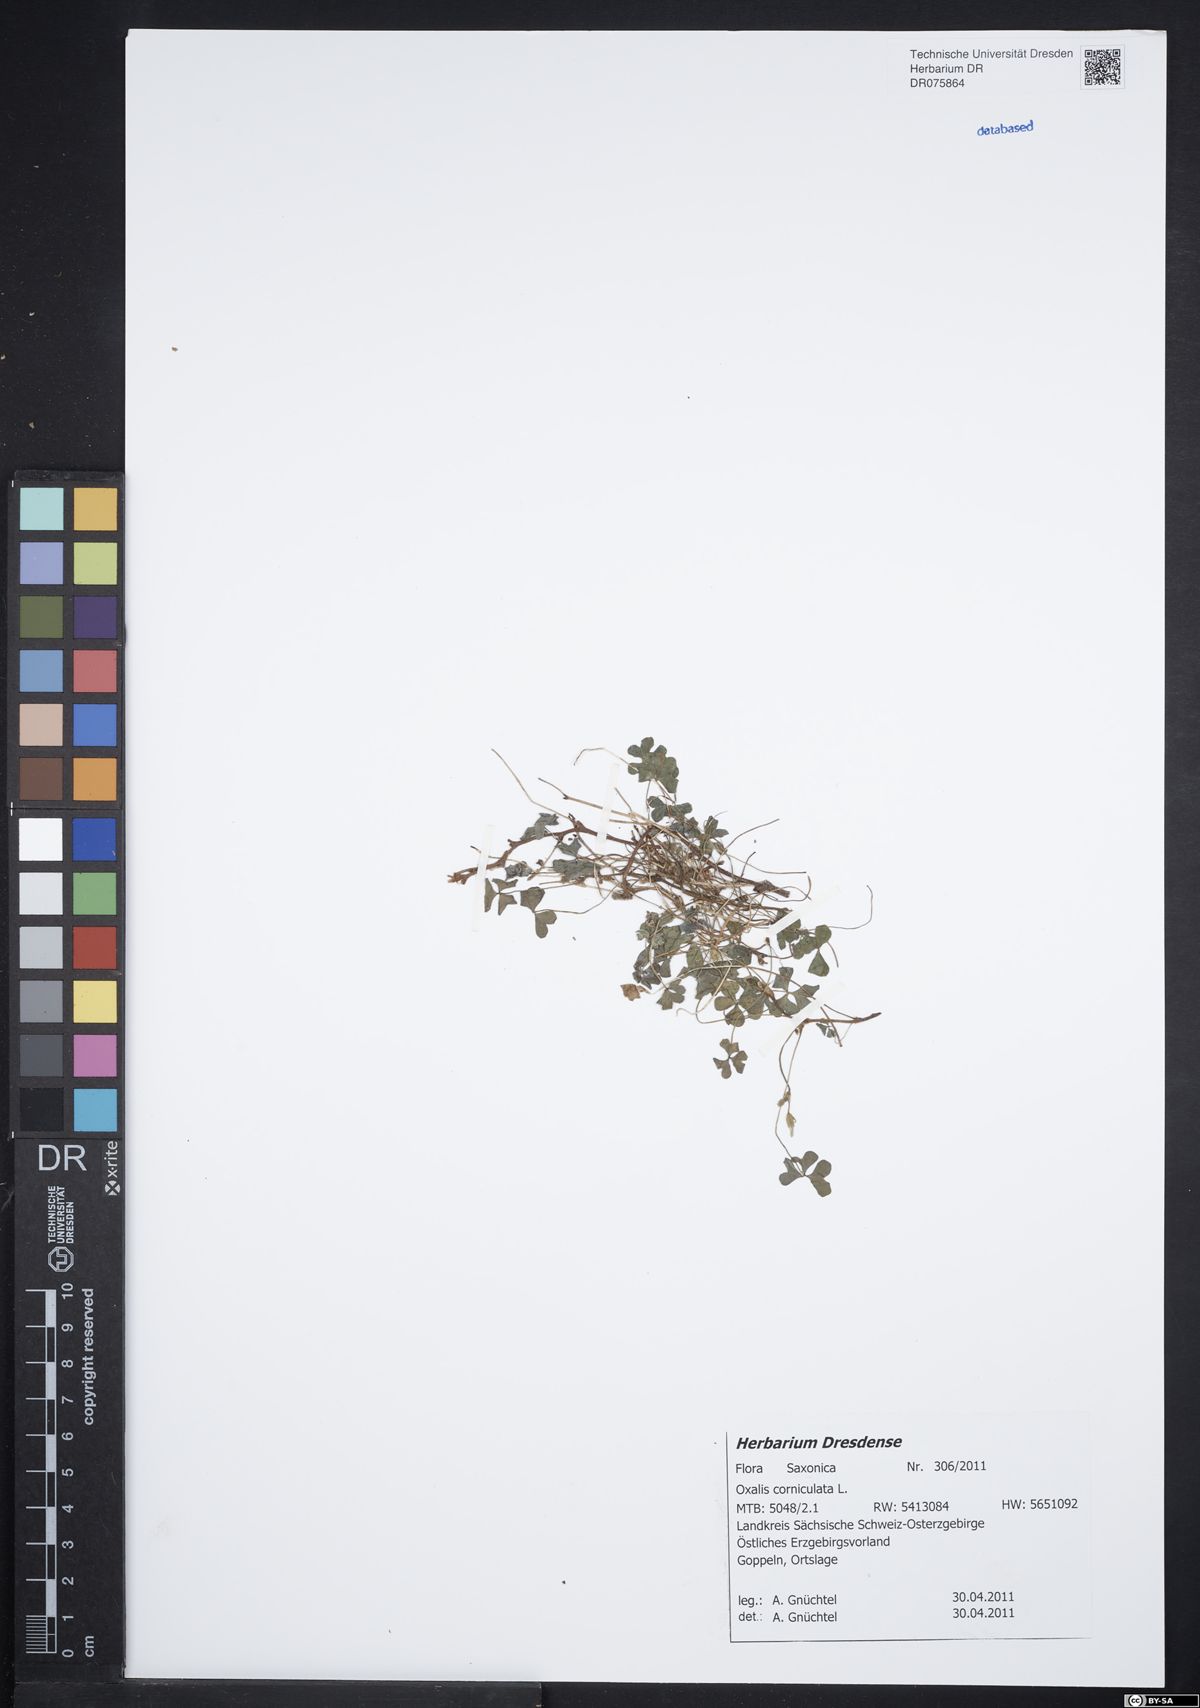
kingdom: Plantae
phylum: Tracheophyta
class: Magnoliopsida
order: Oxalidales
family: Oxalidaceae
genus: Oxalis
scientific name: Oxalis corniculata
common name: Procumbent yellow-sorrel
